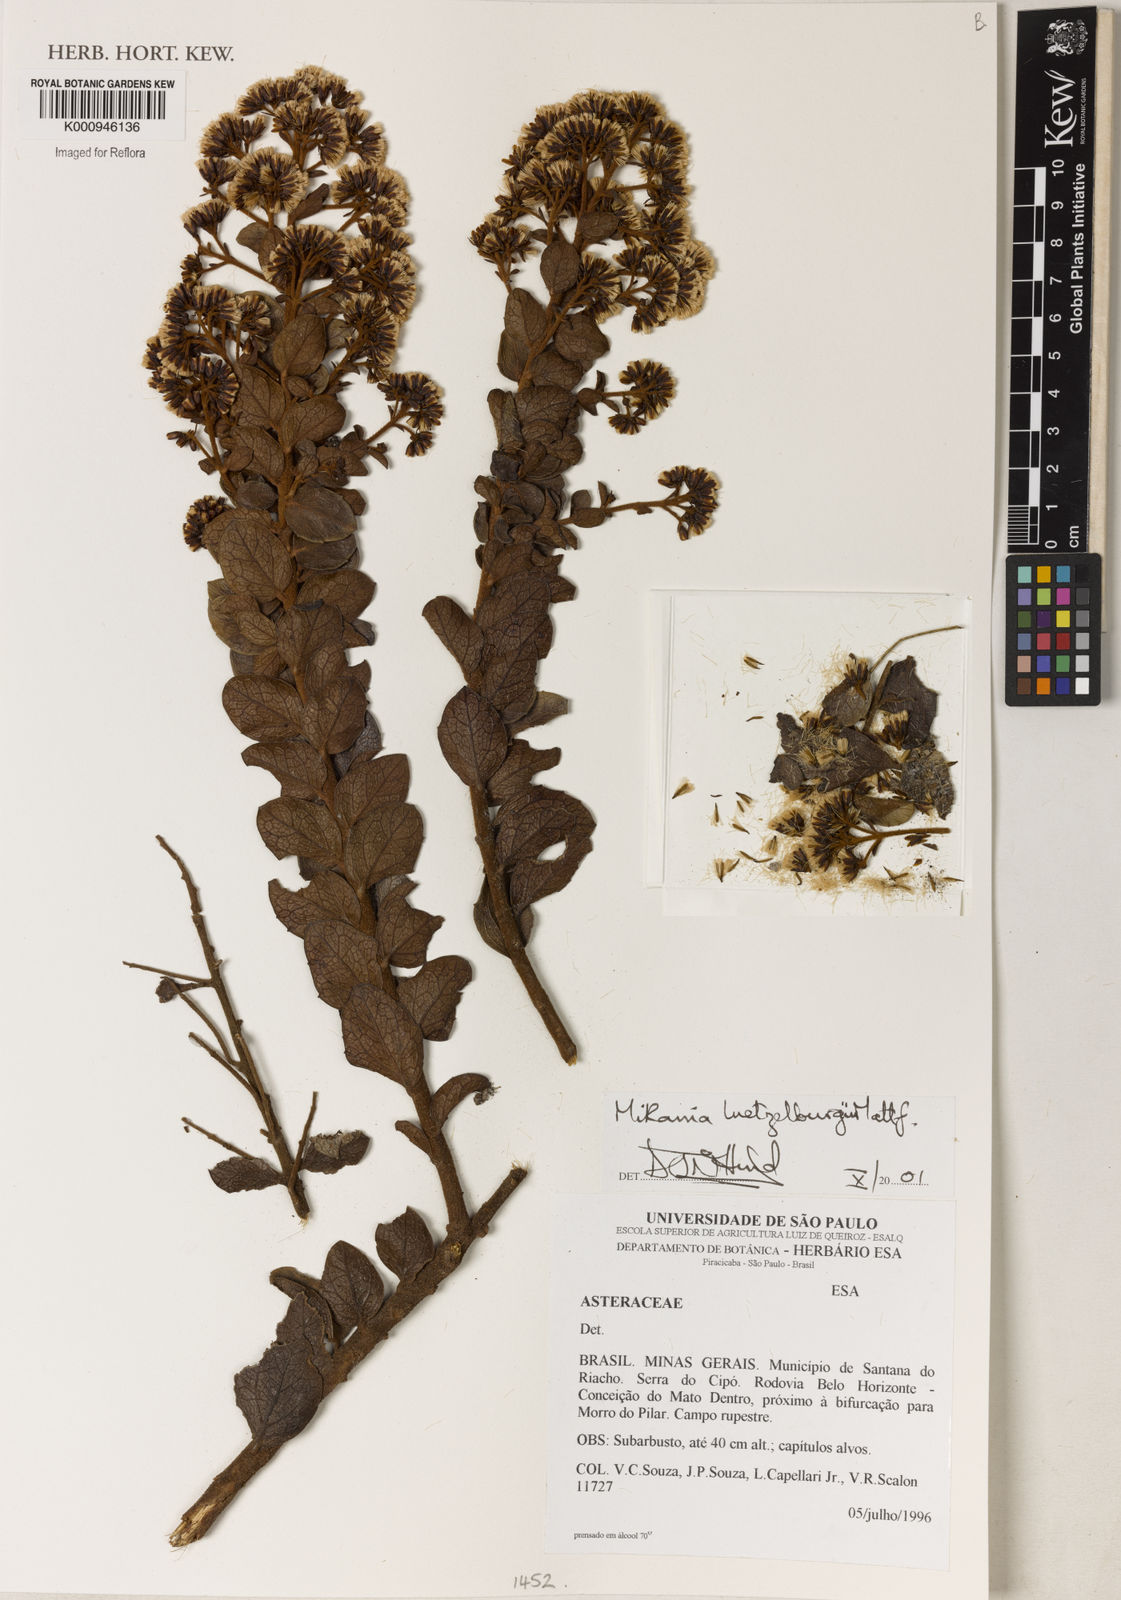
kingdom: Plantae
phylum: Tracheophyta
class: Magnoliopsida
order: Asterales
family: Asteraceae
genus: Mikania
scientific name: Mikania luetzelburgii
